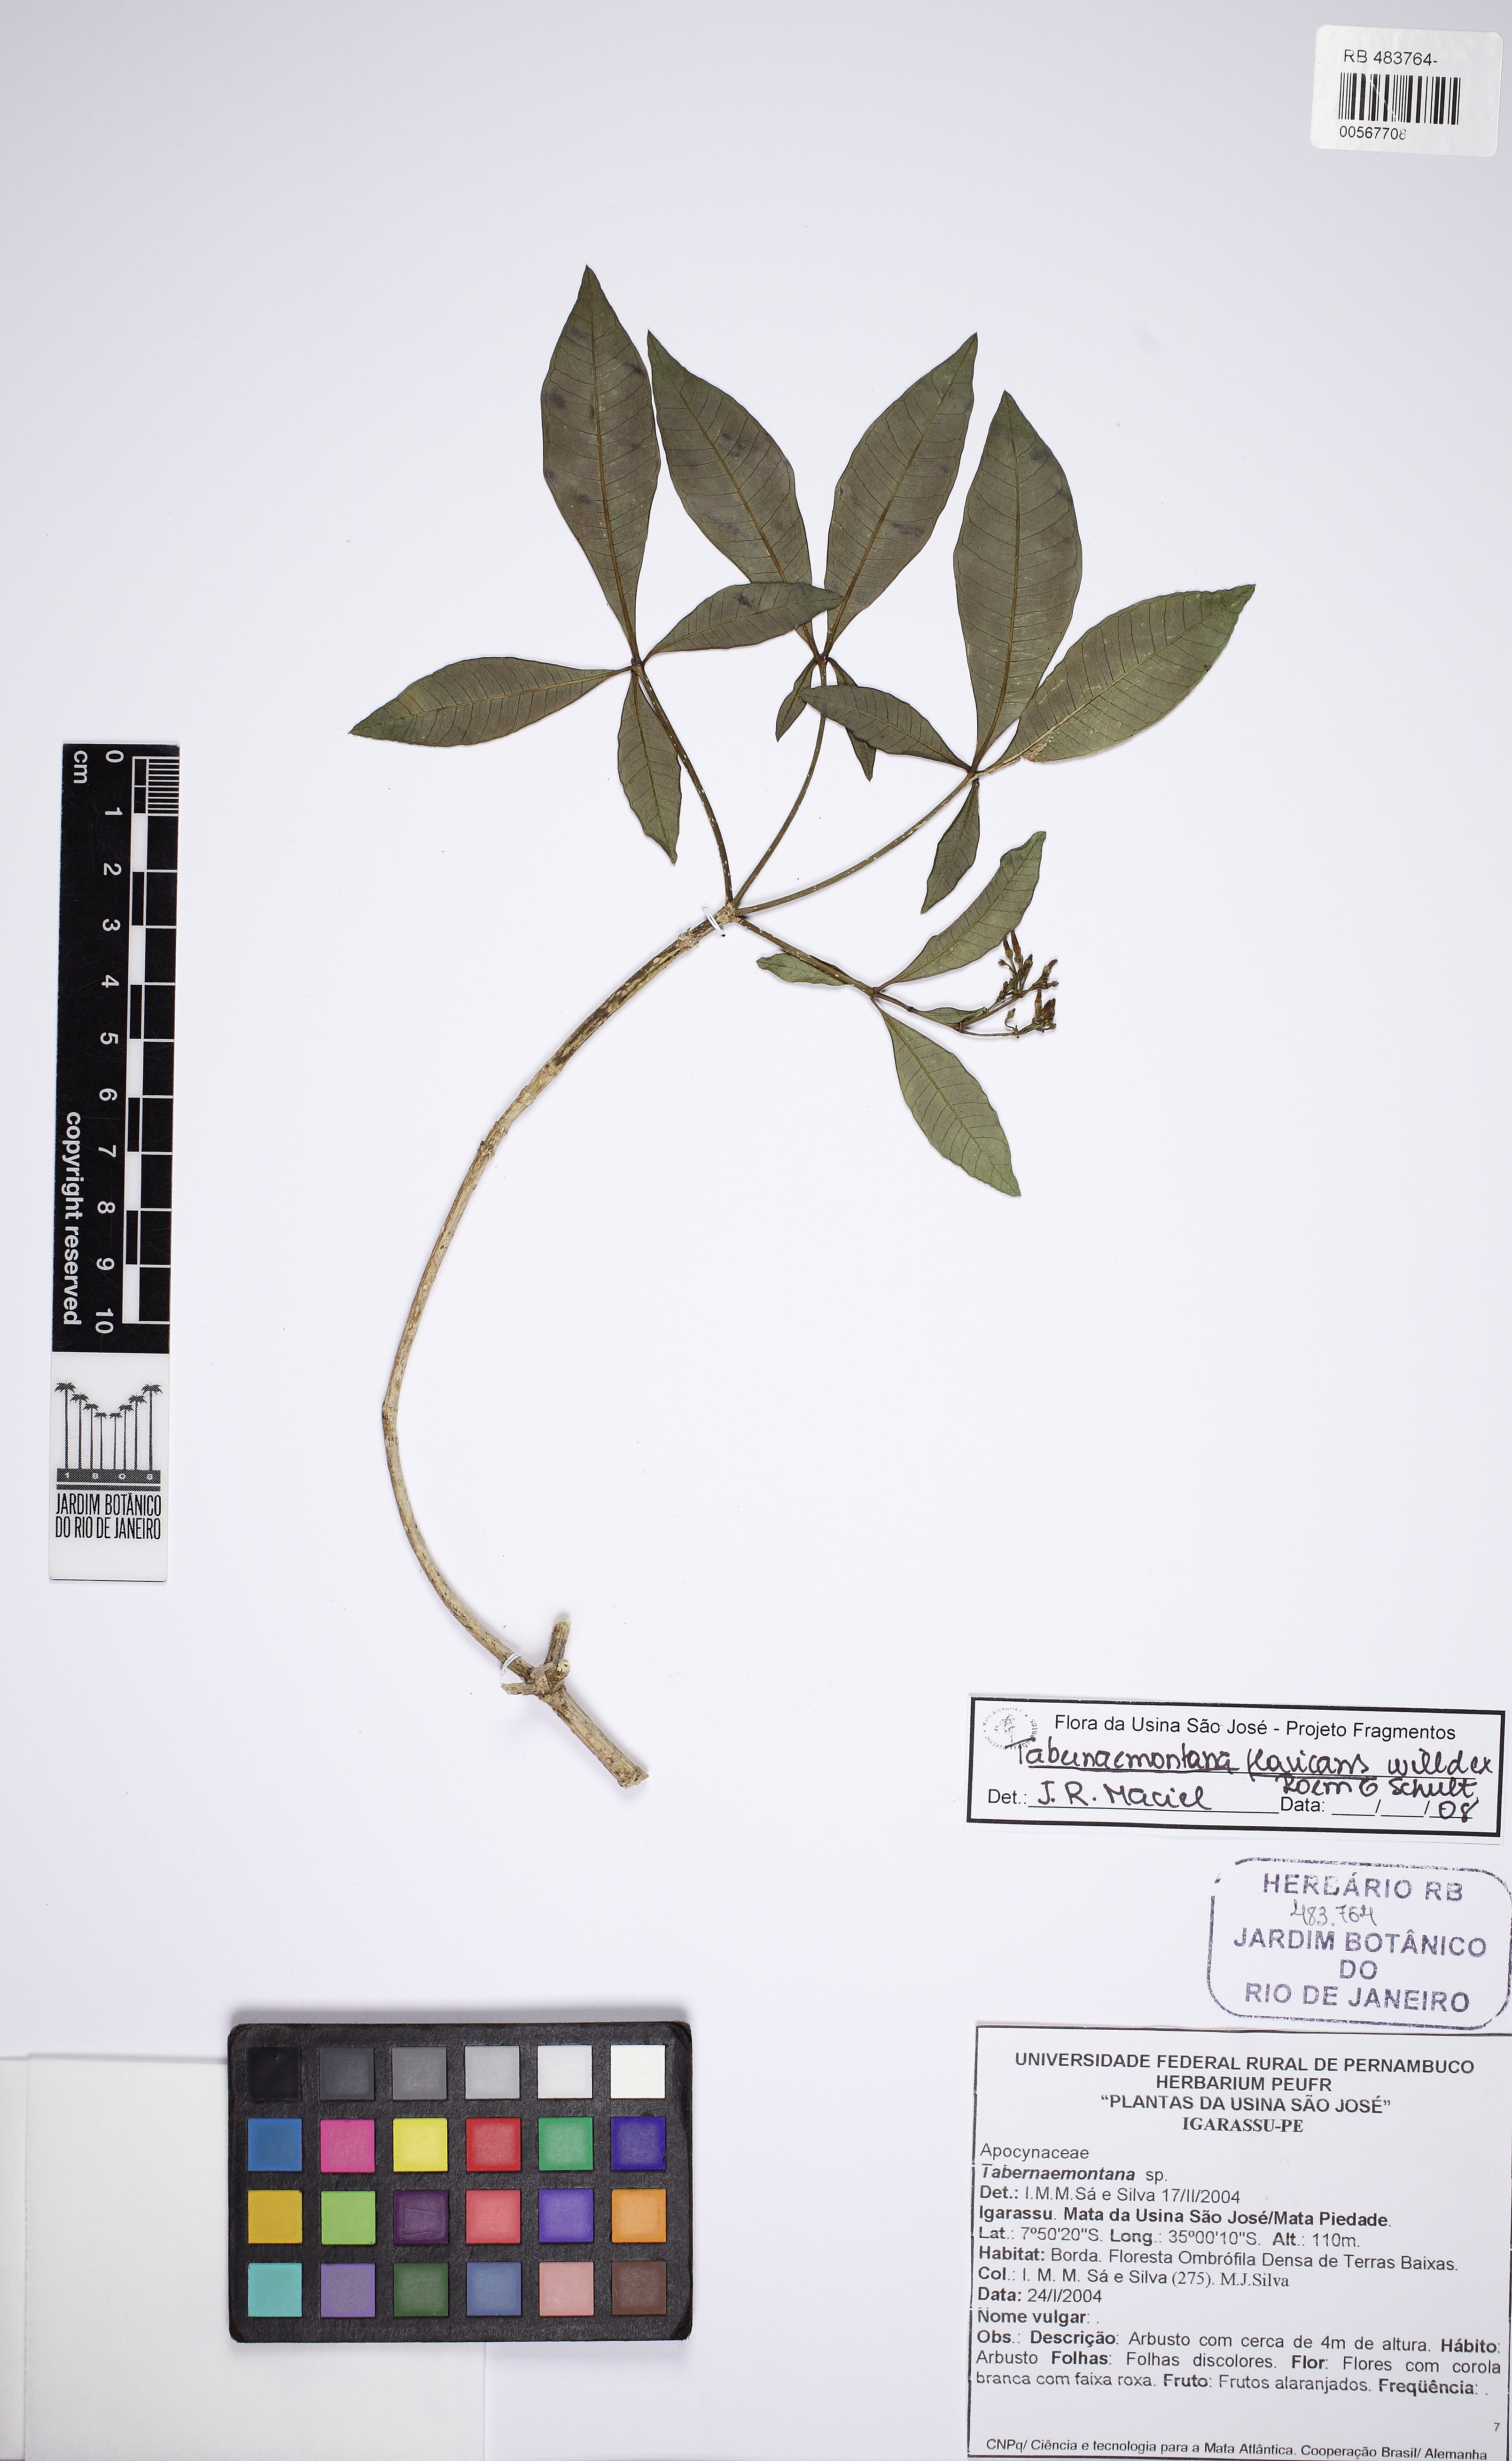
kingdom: Plantae
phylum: Tracheophyta
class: Magnoliopsida
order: Gentianales
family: Apocynaceae
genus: Rauvolfia
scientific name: Rauvolfia
